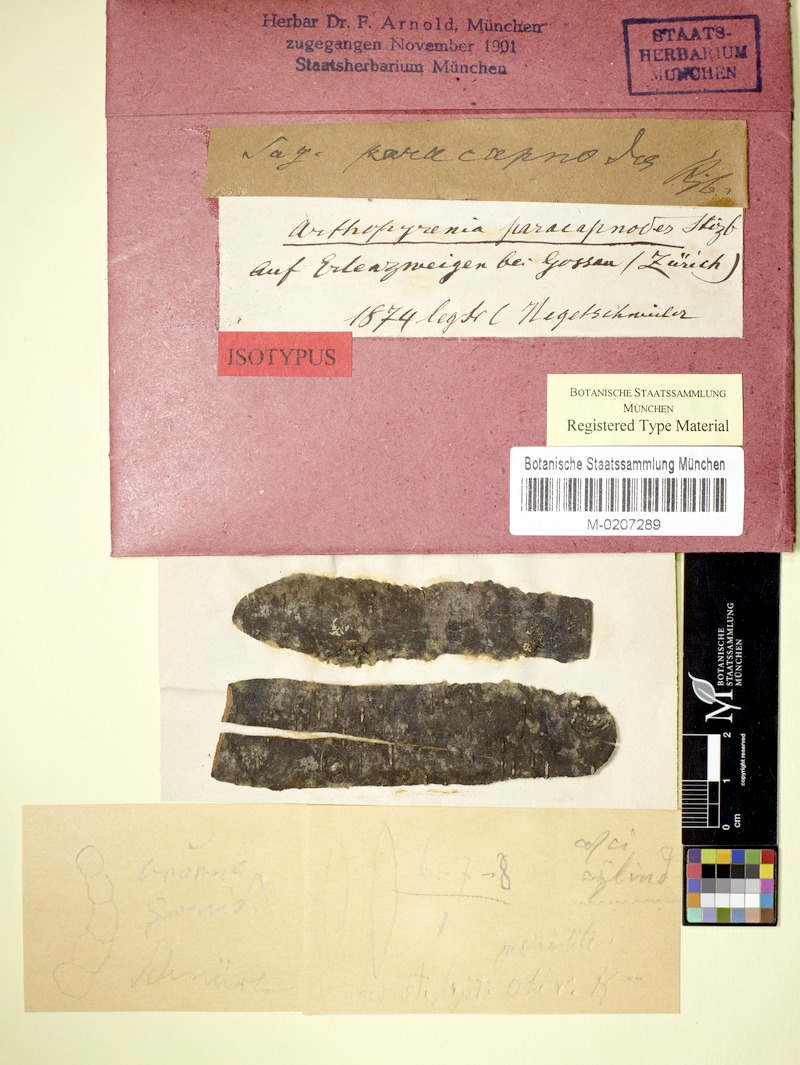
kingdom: Fungi
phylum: Ascomycota
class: Dothideomycetes
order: Trypetheliales
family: Trypetheliaceae
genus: Arthopyrenia
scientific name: Arthopyrenia
